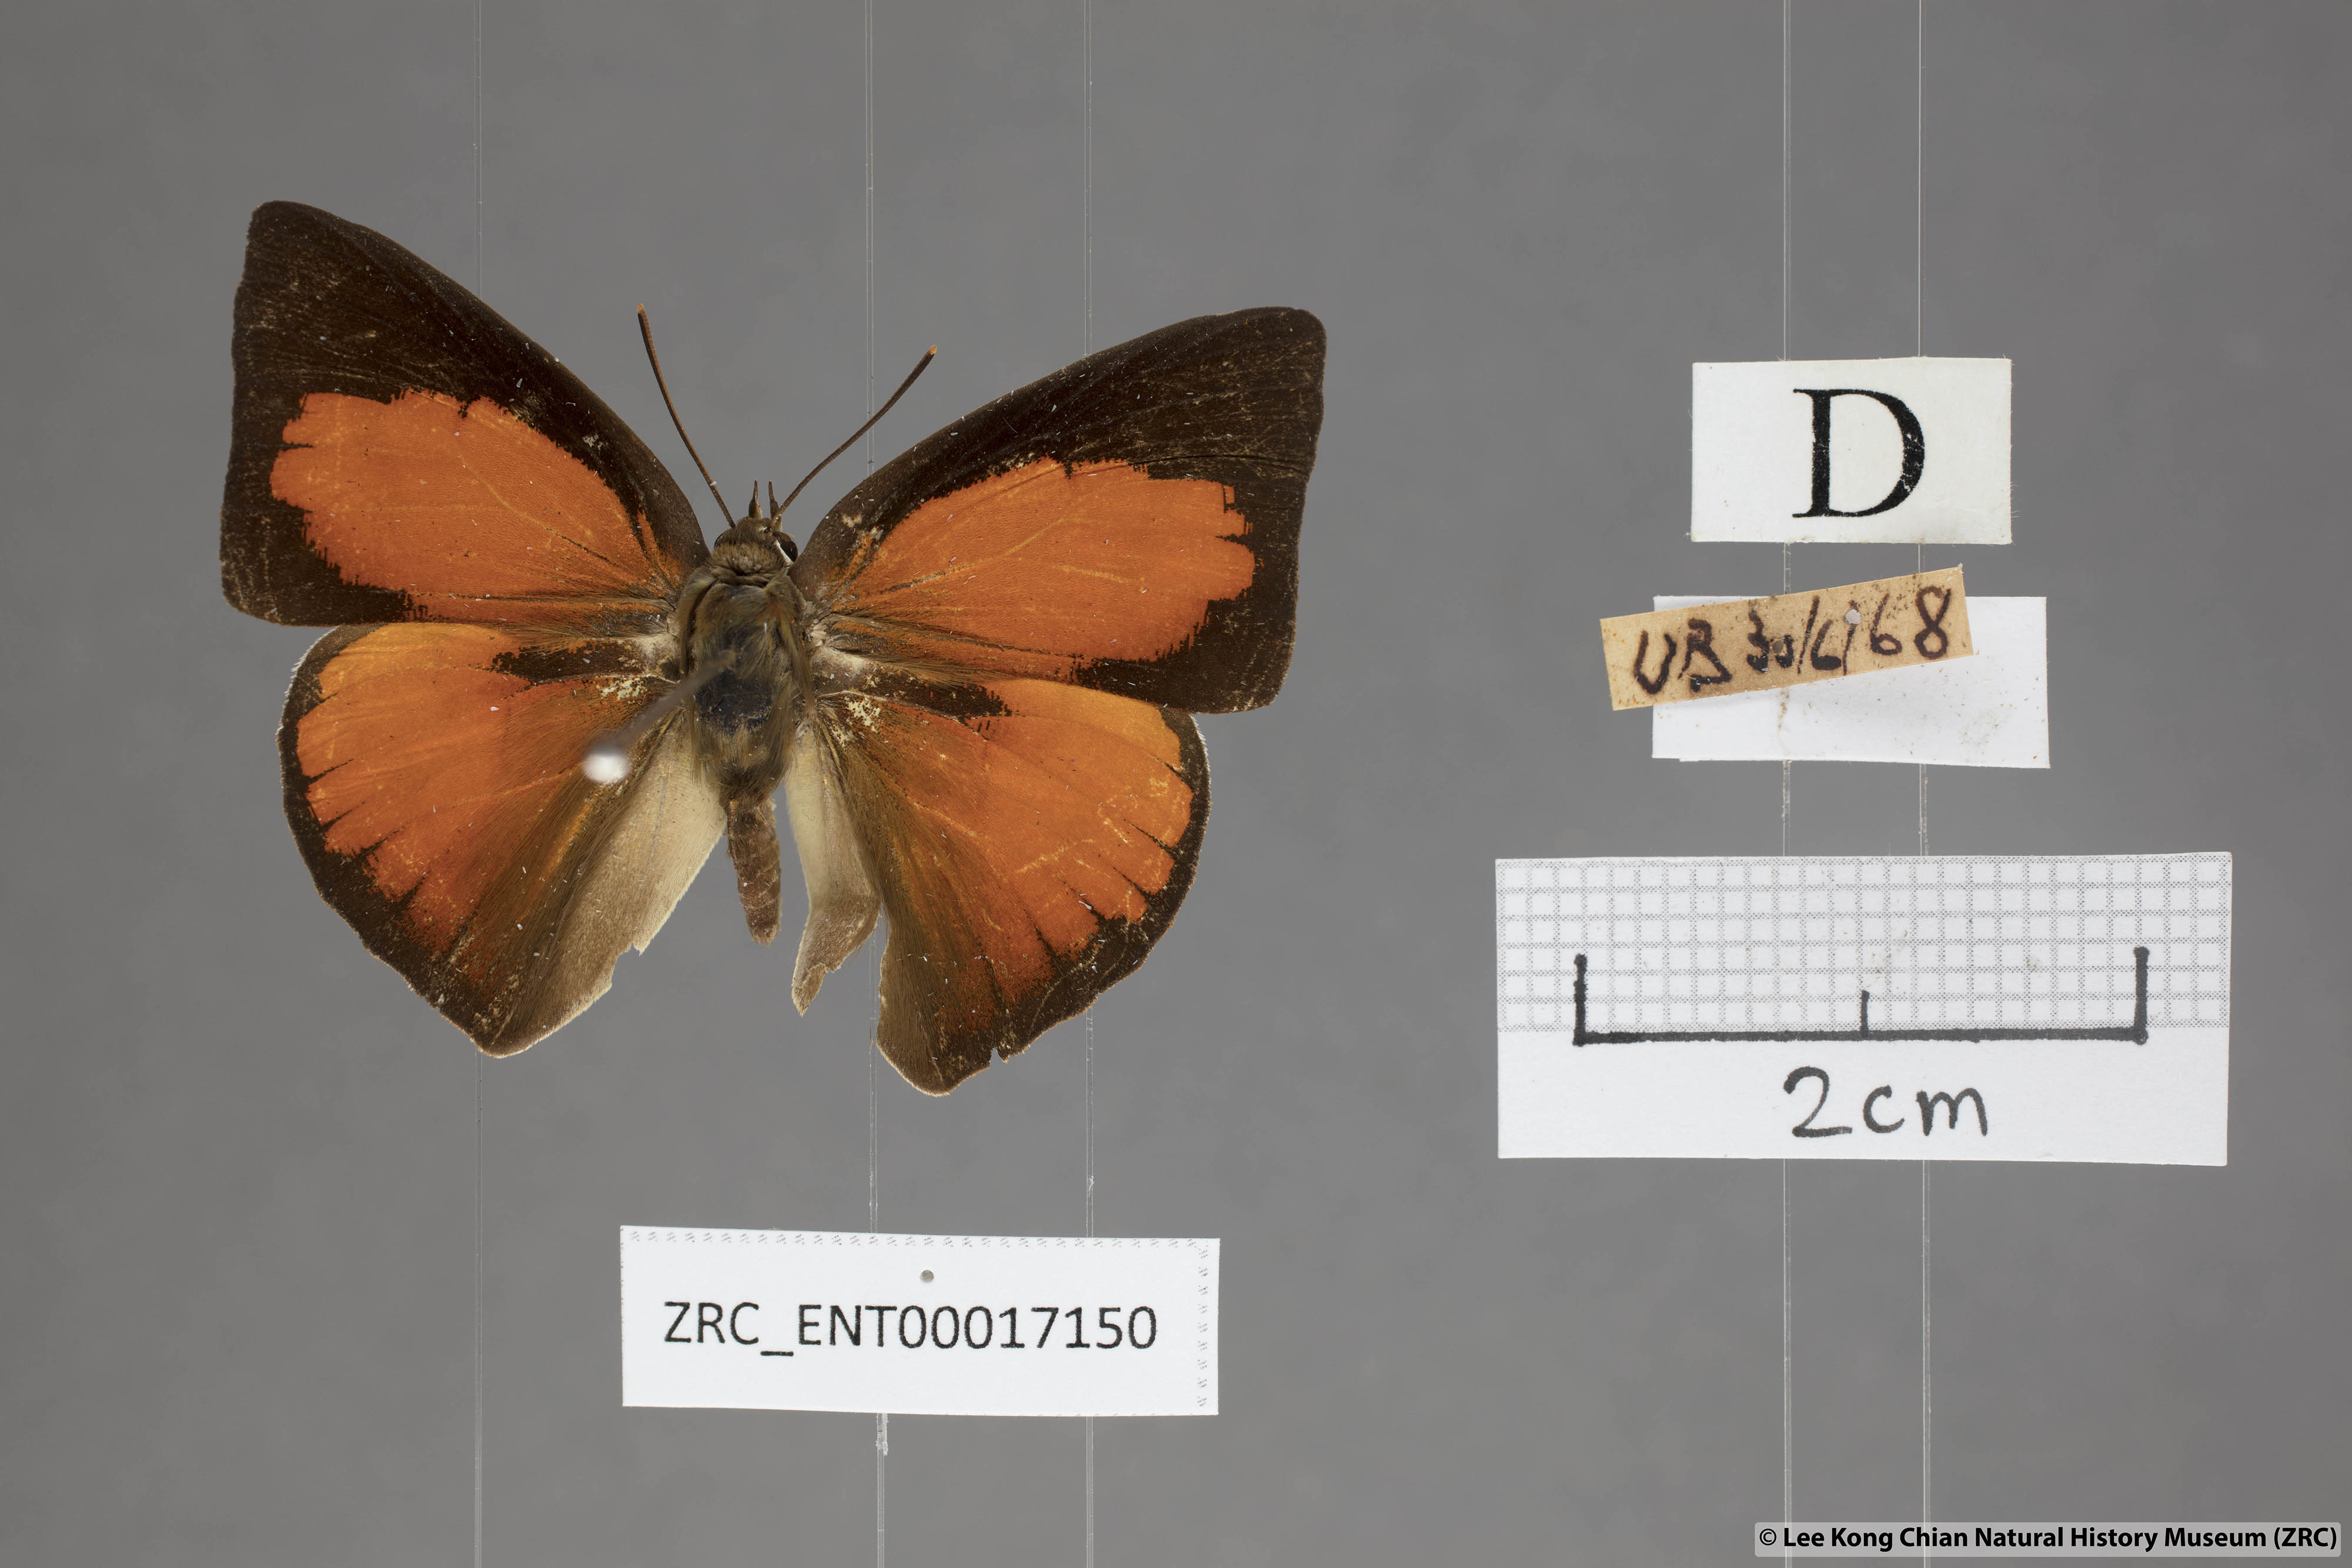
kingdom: Animalia
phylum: Arthropoda
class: Insecta
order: Lepidoptera
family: Lycaenidae
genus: Curetis
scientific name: Curetis santana
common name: Malayan sunbeam
